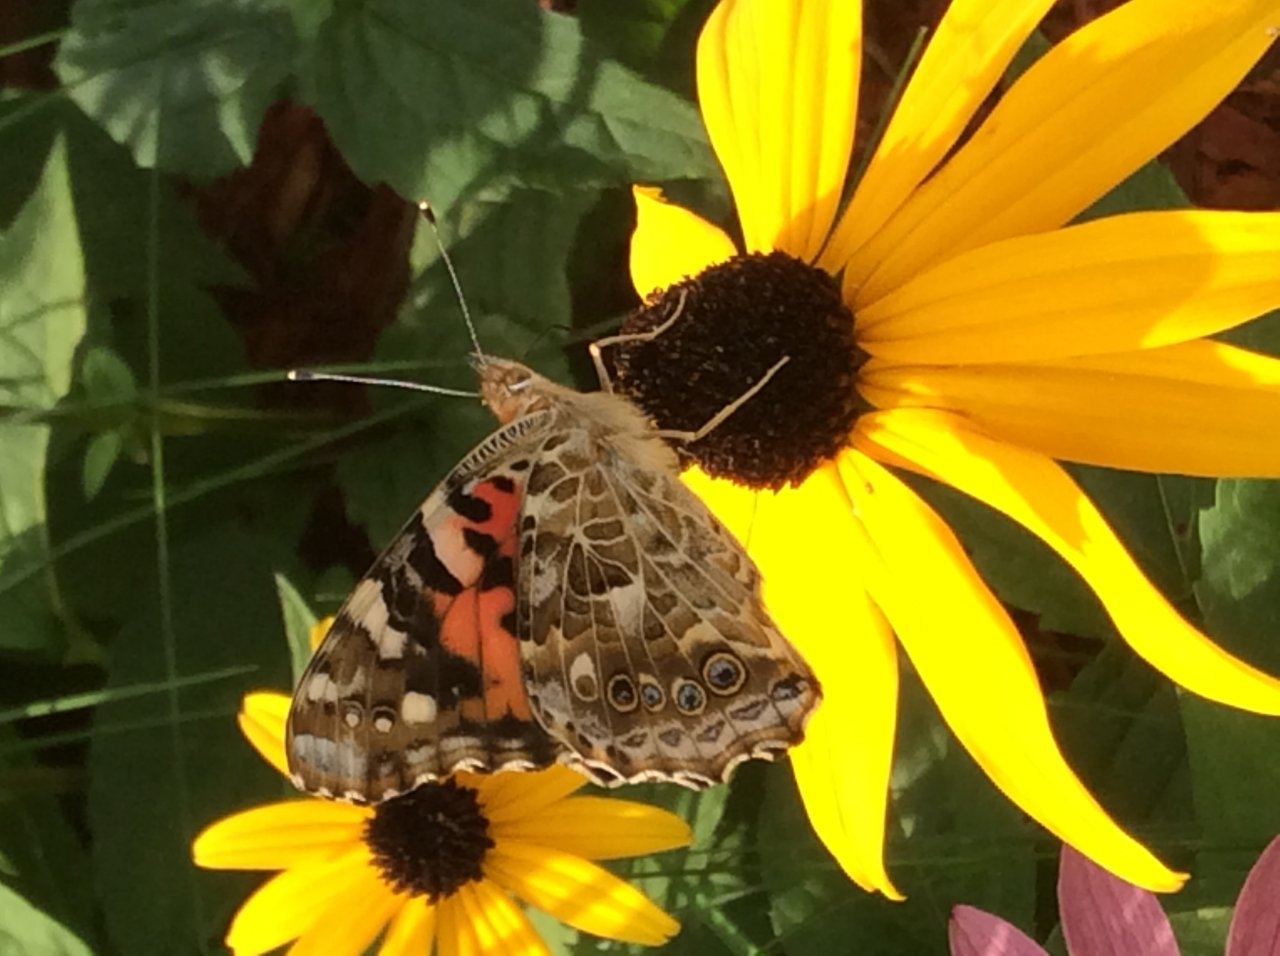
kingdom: Animalia
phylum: Arthropoda
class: Insecta
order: Lepidoptera
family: Nymphalidae
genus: Vanessa
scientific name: Vanessa cardui
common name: Painted Lady
